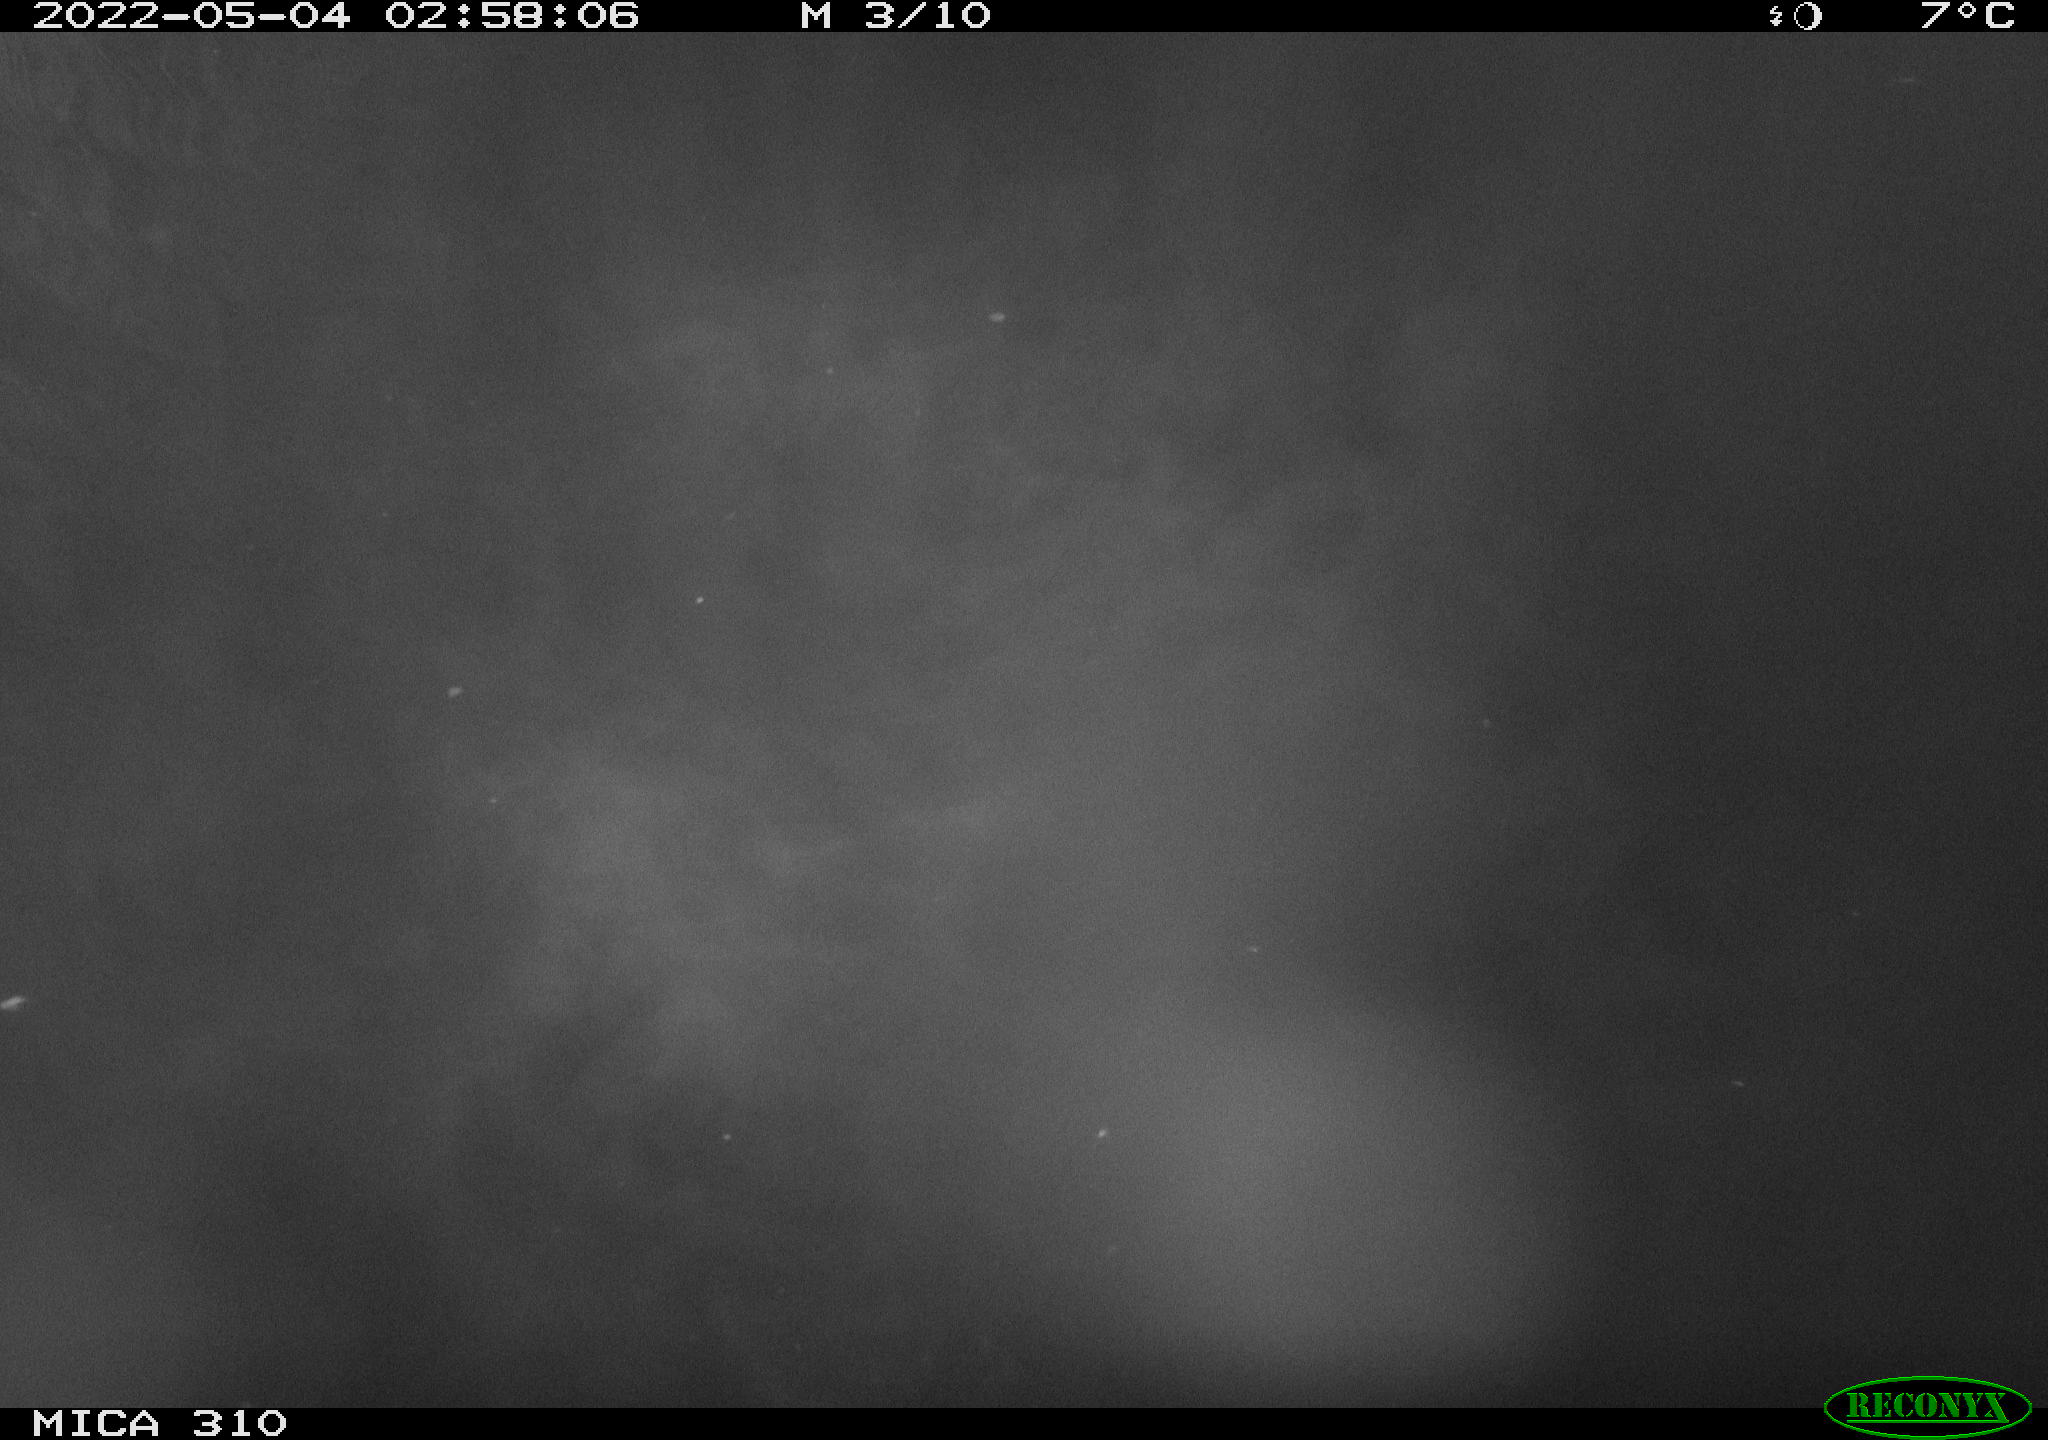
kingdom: Animalia
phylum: Chordata
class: Aves
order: Anseriformes
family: Anatidae
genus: Anas
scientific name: Anas platyrhynchos
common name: Mallard
